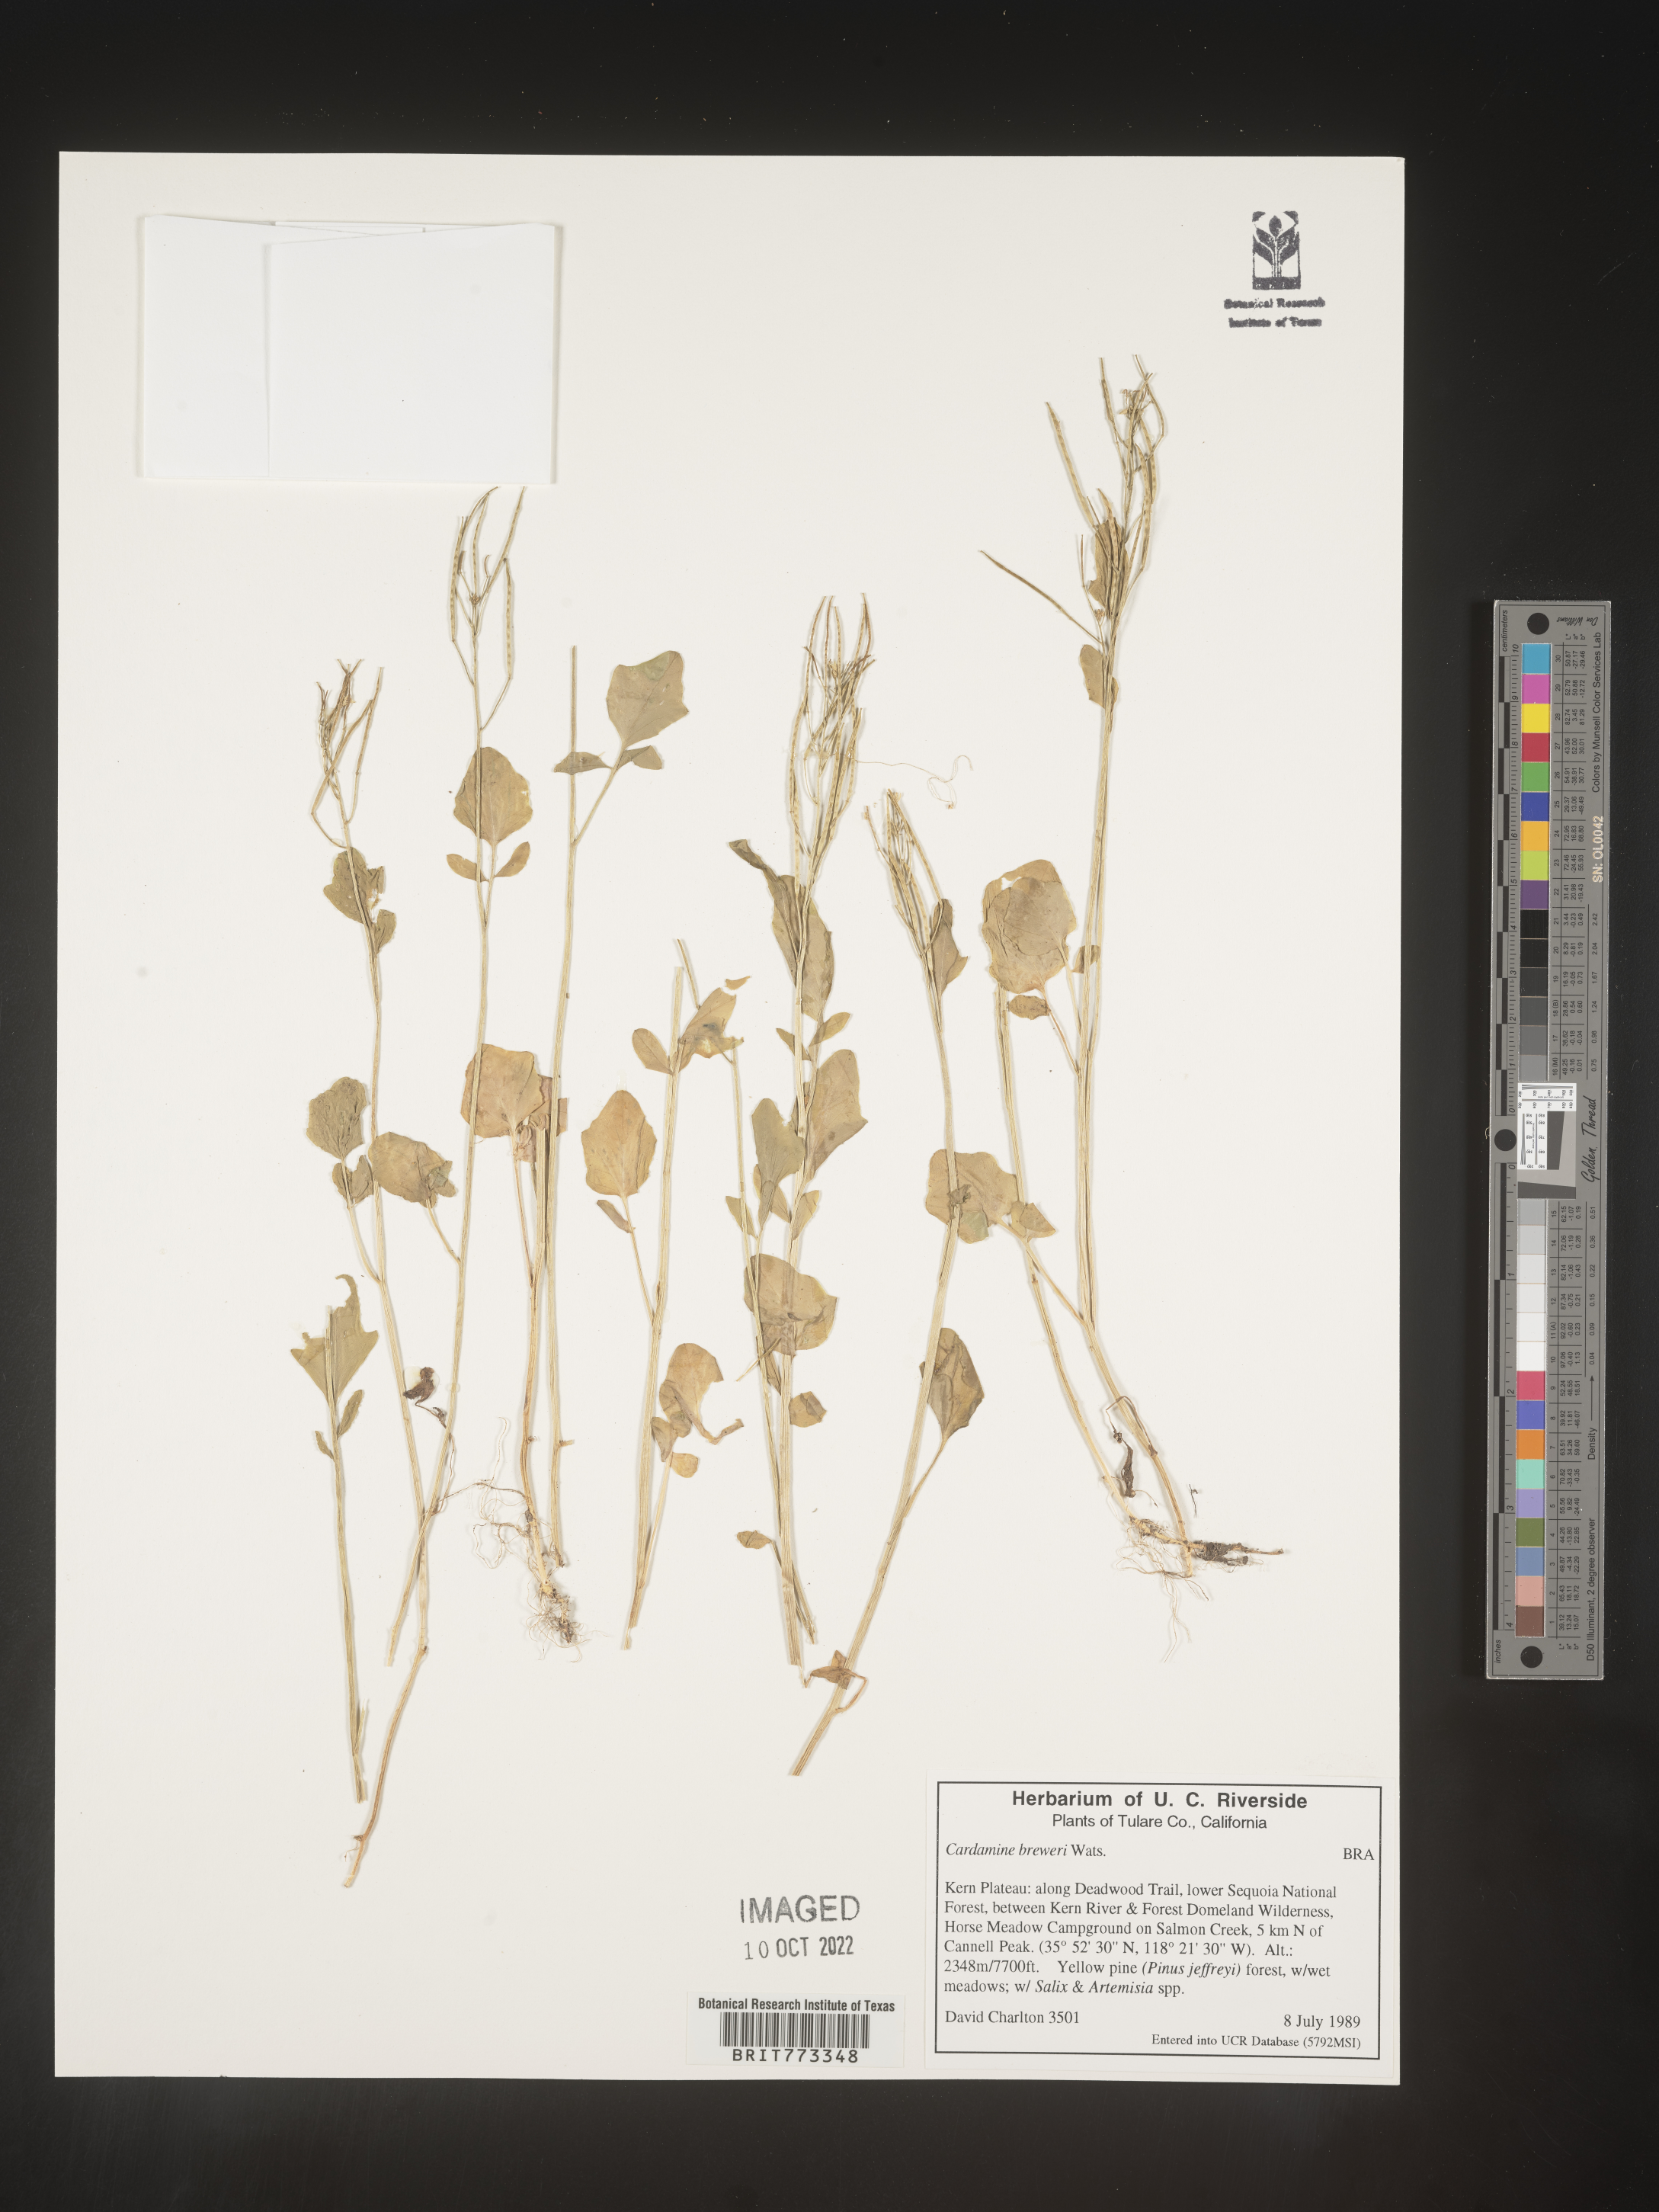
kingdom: Plantae
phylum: Tracheophyta
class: Magnoliopsida
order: Brassicales
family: Brassicaceae
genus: Cardamine
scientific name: Cardamine
